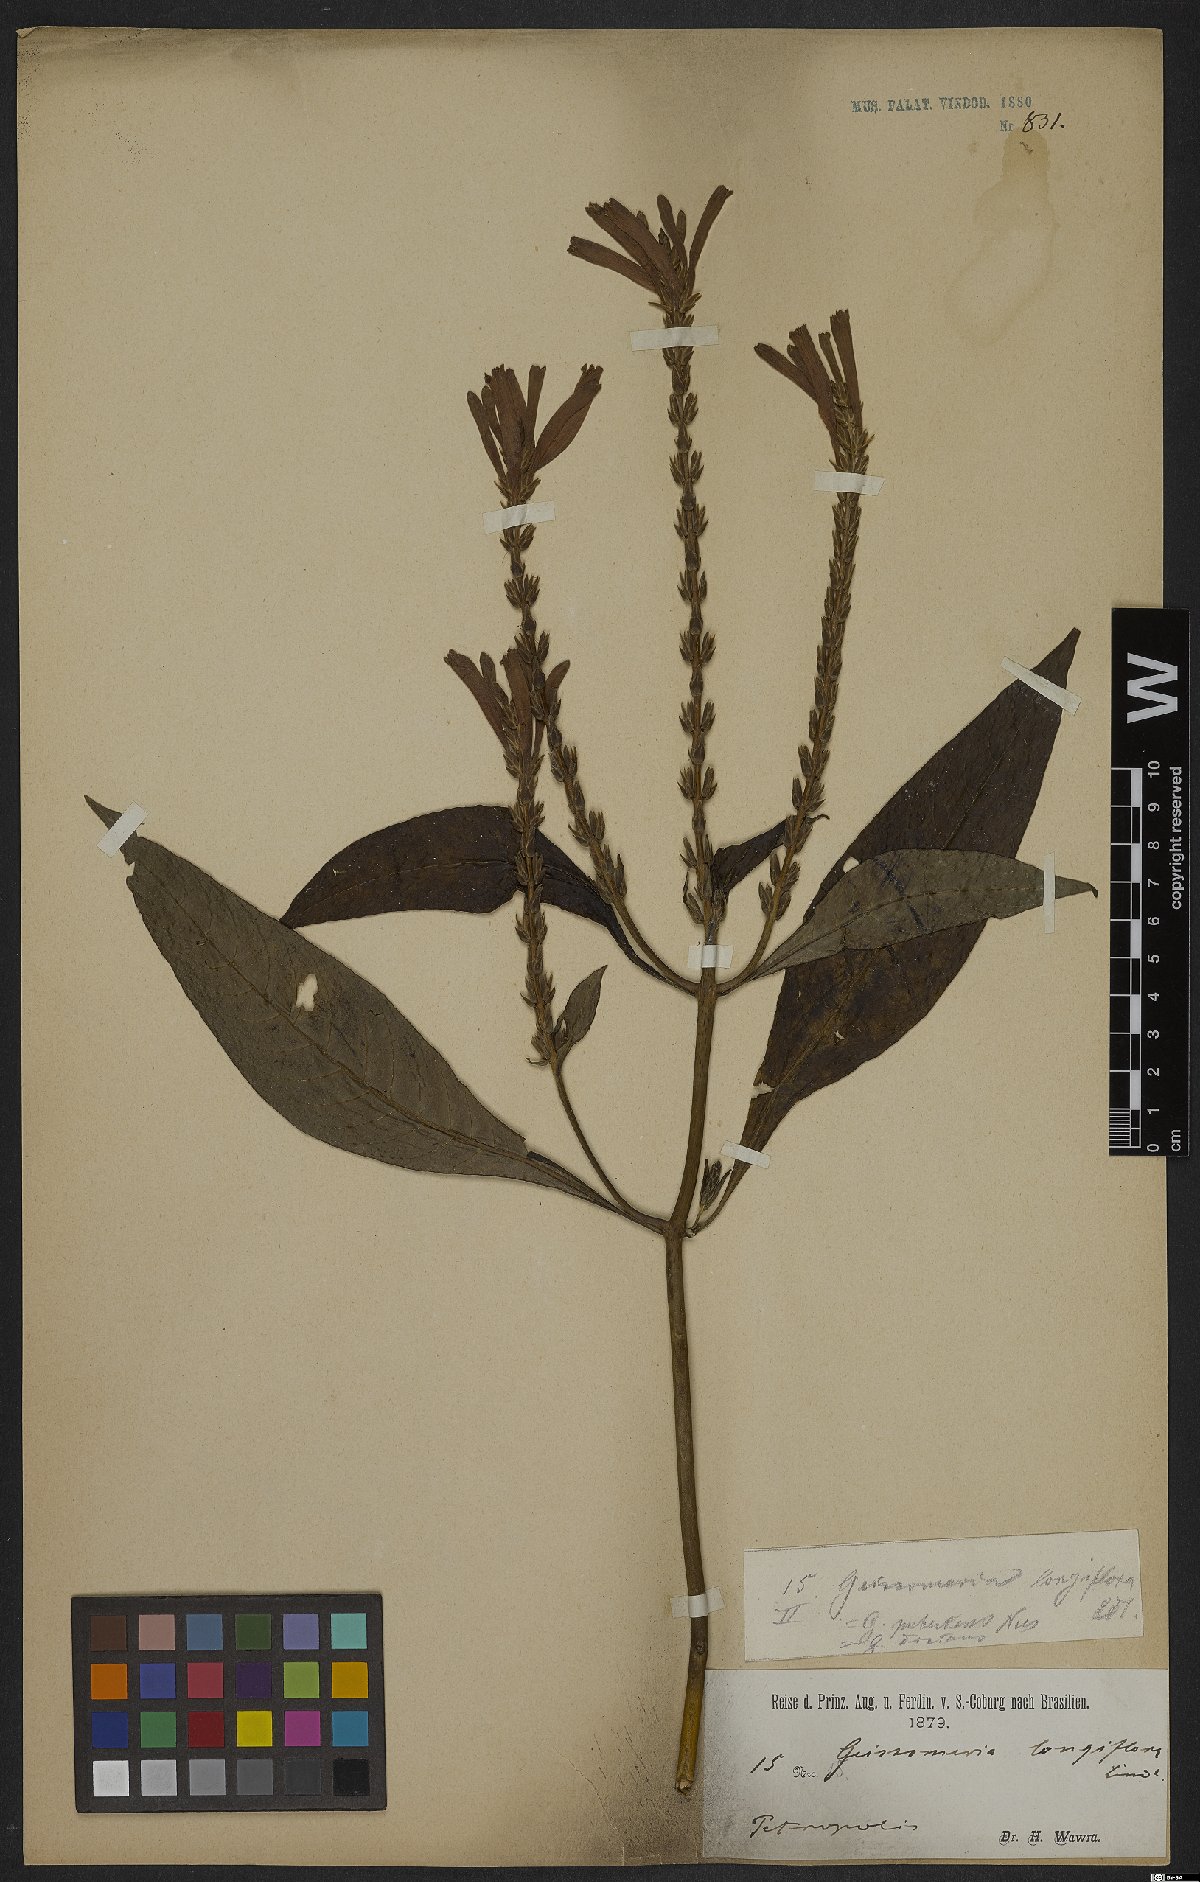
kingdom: Plantae
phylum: Tracheophyta
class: Magnoliopsida
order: Lamiales
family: Acanthaceae
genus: Aphelandra
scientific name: Aphelandra longiflora
